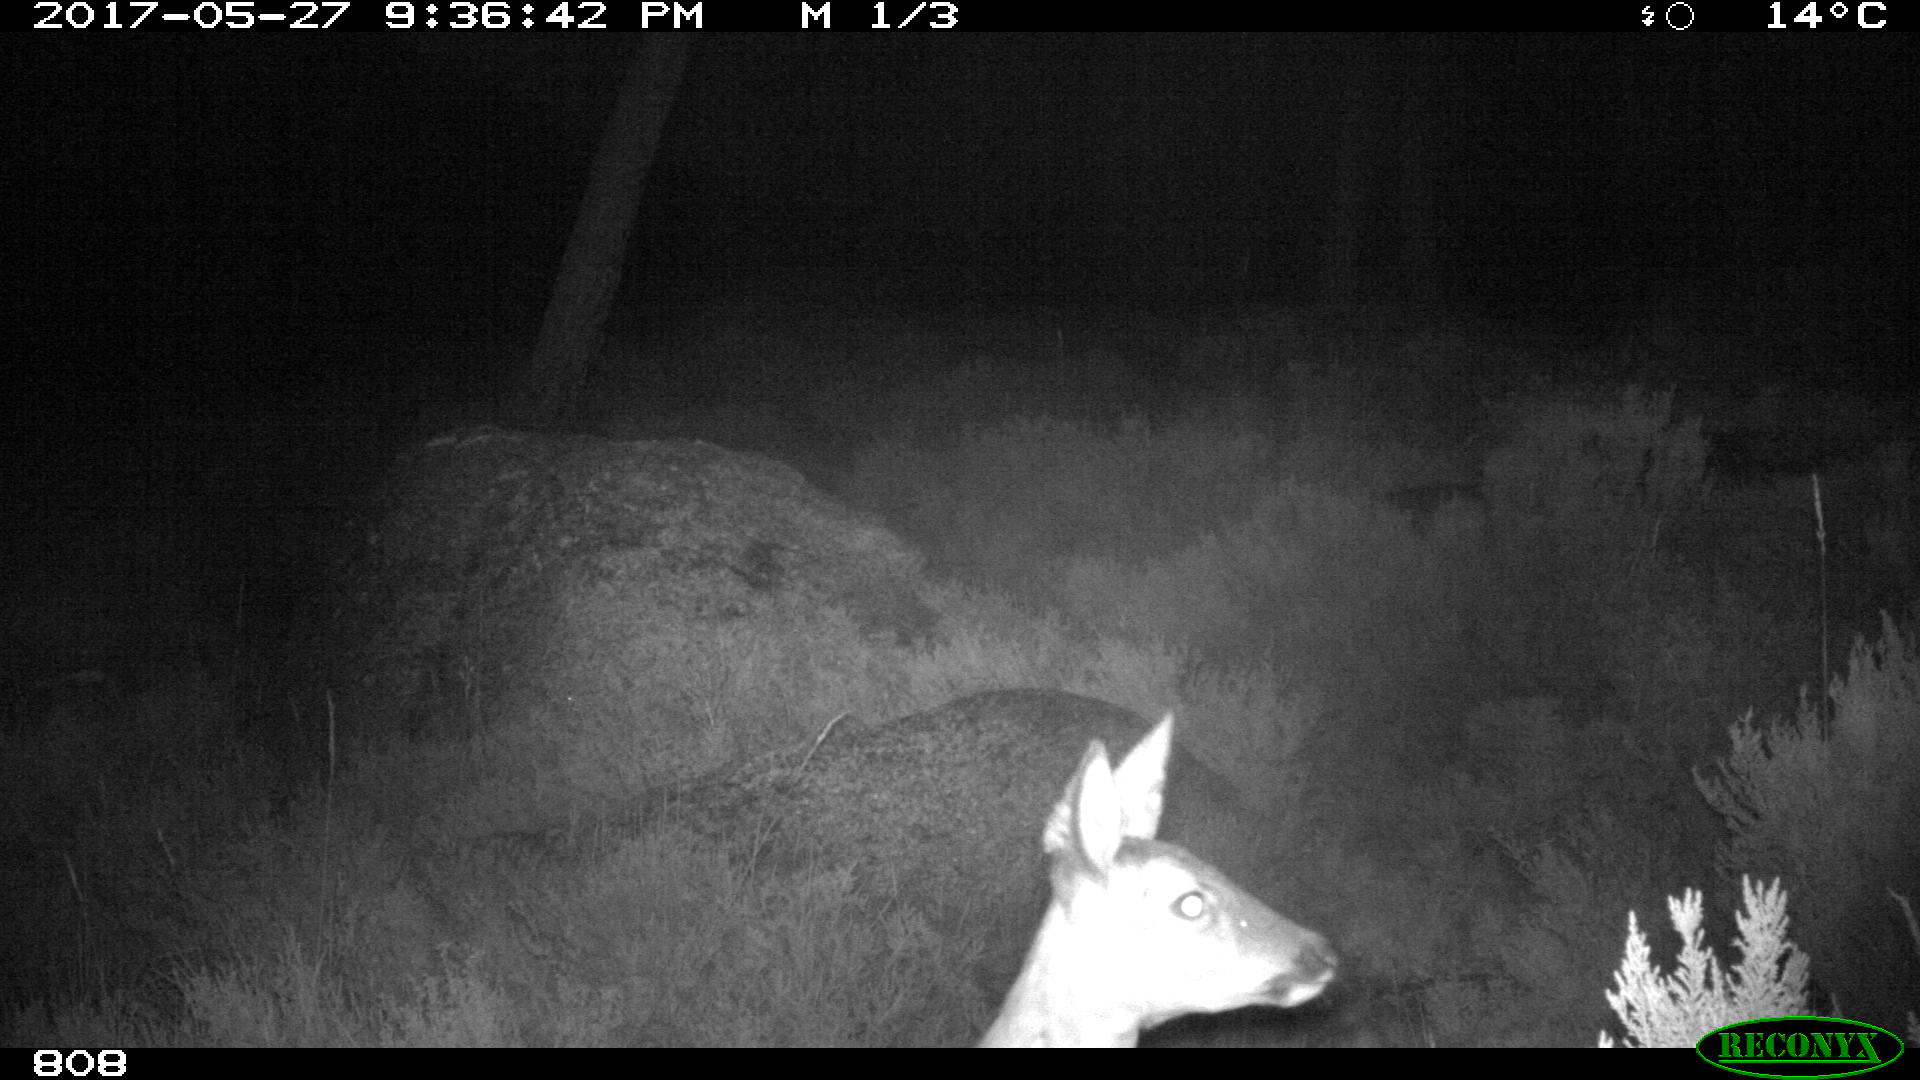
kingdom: Animalia
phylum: Chordata
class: Mammalia
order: Artiodactyla
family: Cervidae
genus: Capreolus
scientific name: Capreolus capreolus
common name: Western roe deer
